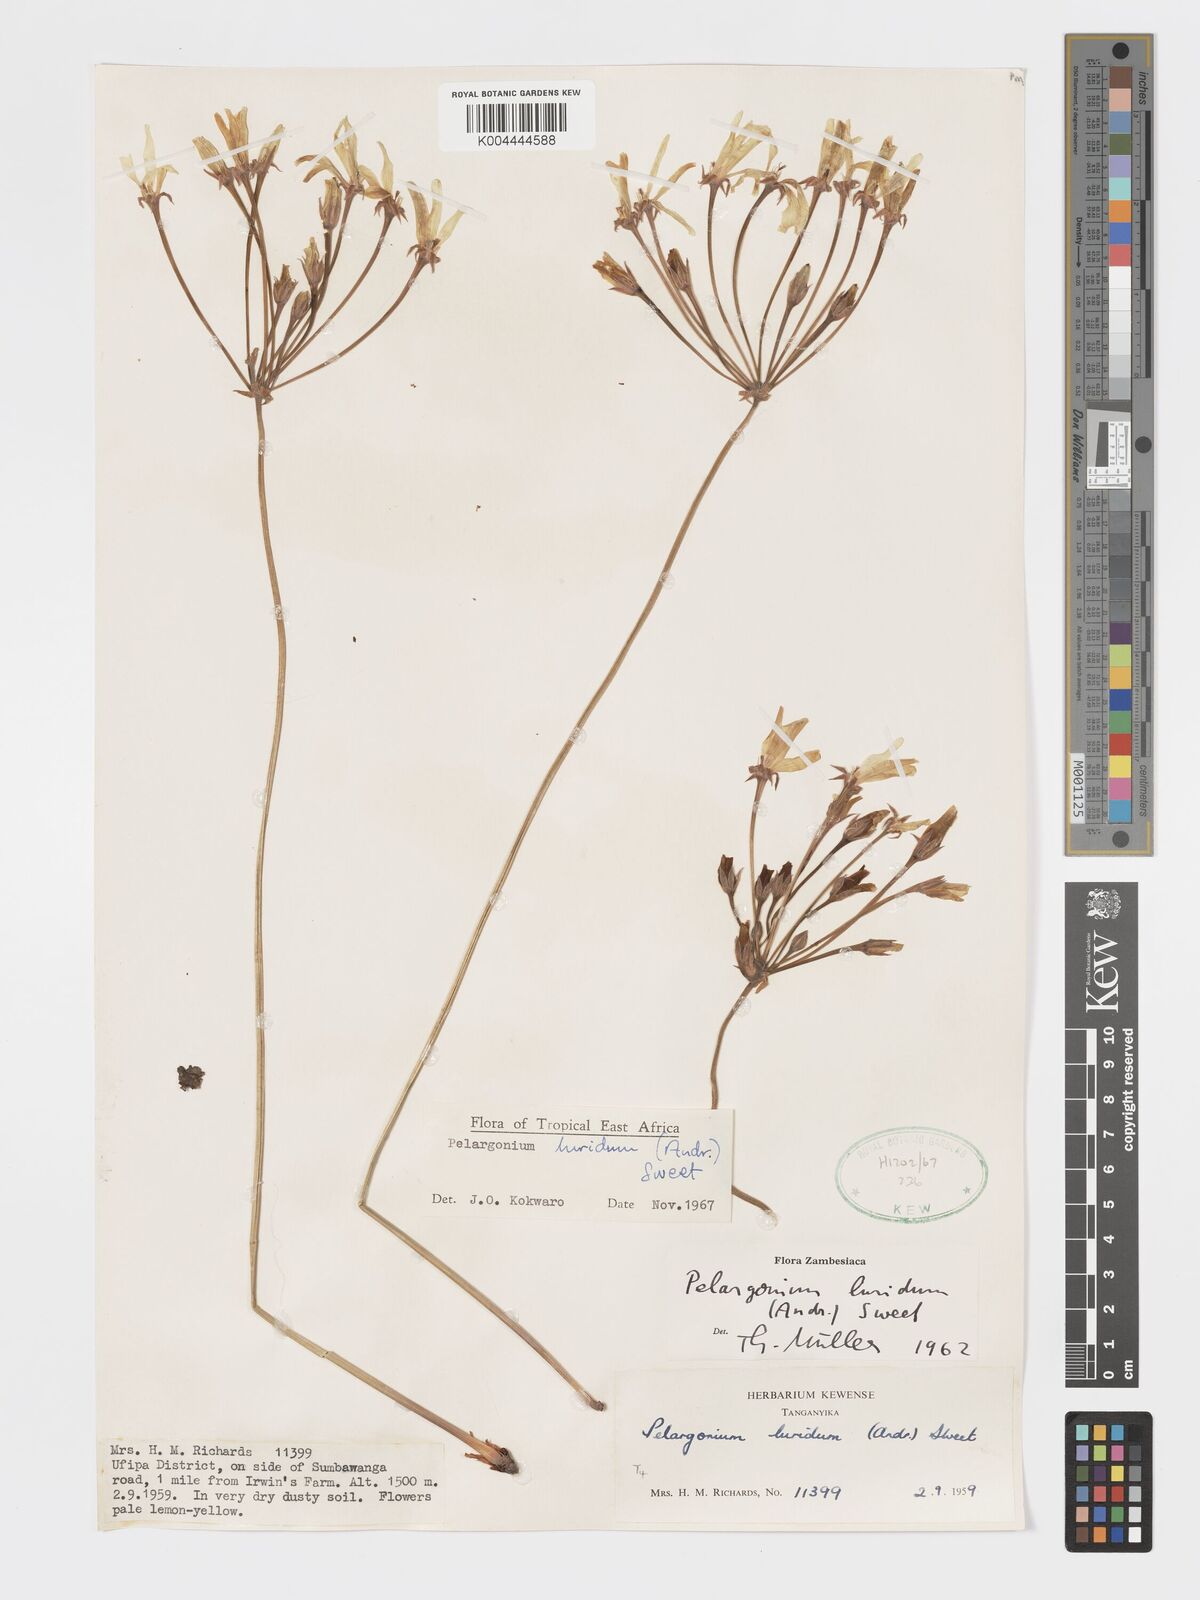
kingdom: Plantae
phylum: Tracheophyta
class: Magnoliopsida
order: Geraniales
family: Geraniaceae
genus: Pelargonium
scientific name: Pelargonium luridum
